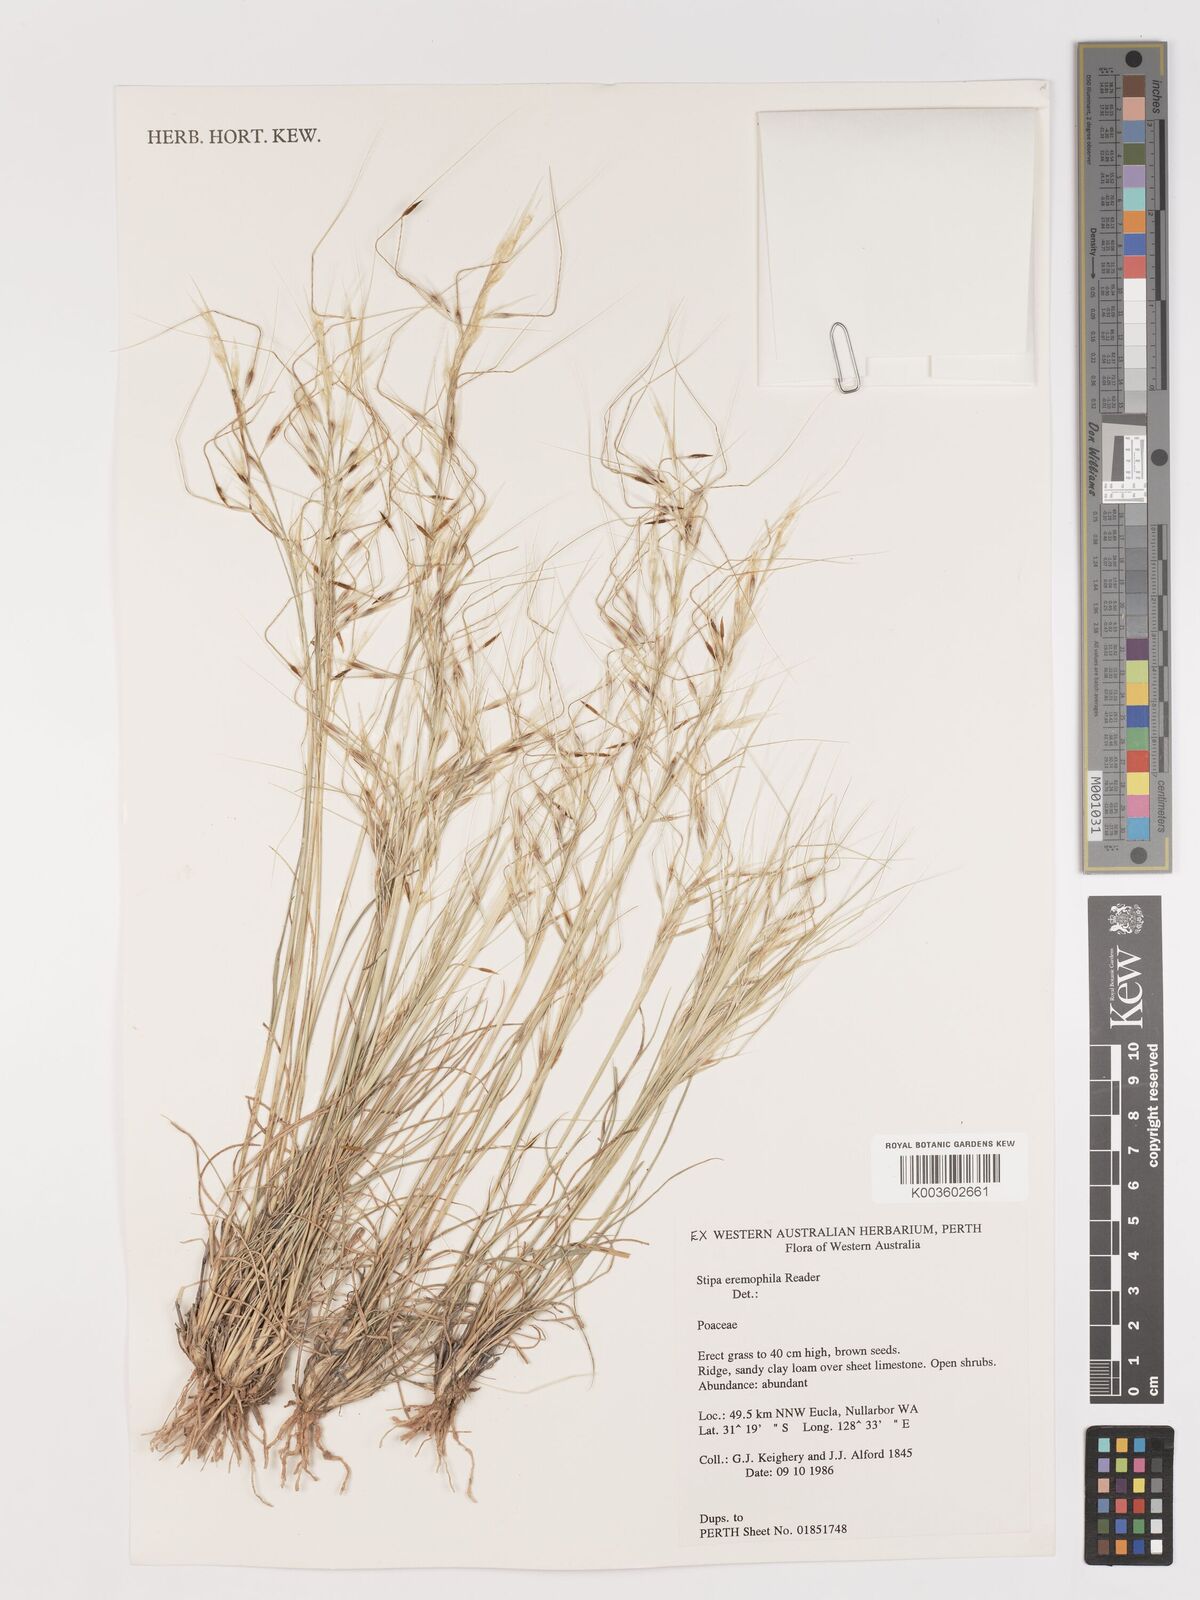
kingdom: Plantae
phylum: Tracheophyta
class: Liliopsida
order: Poales
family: Poaceae
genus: Austrostipa
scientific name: Austrostipa eremophila
